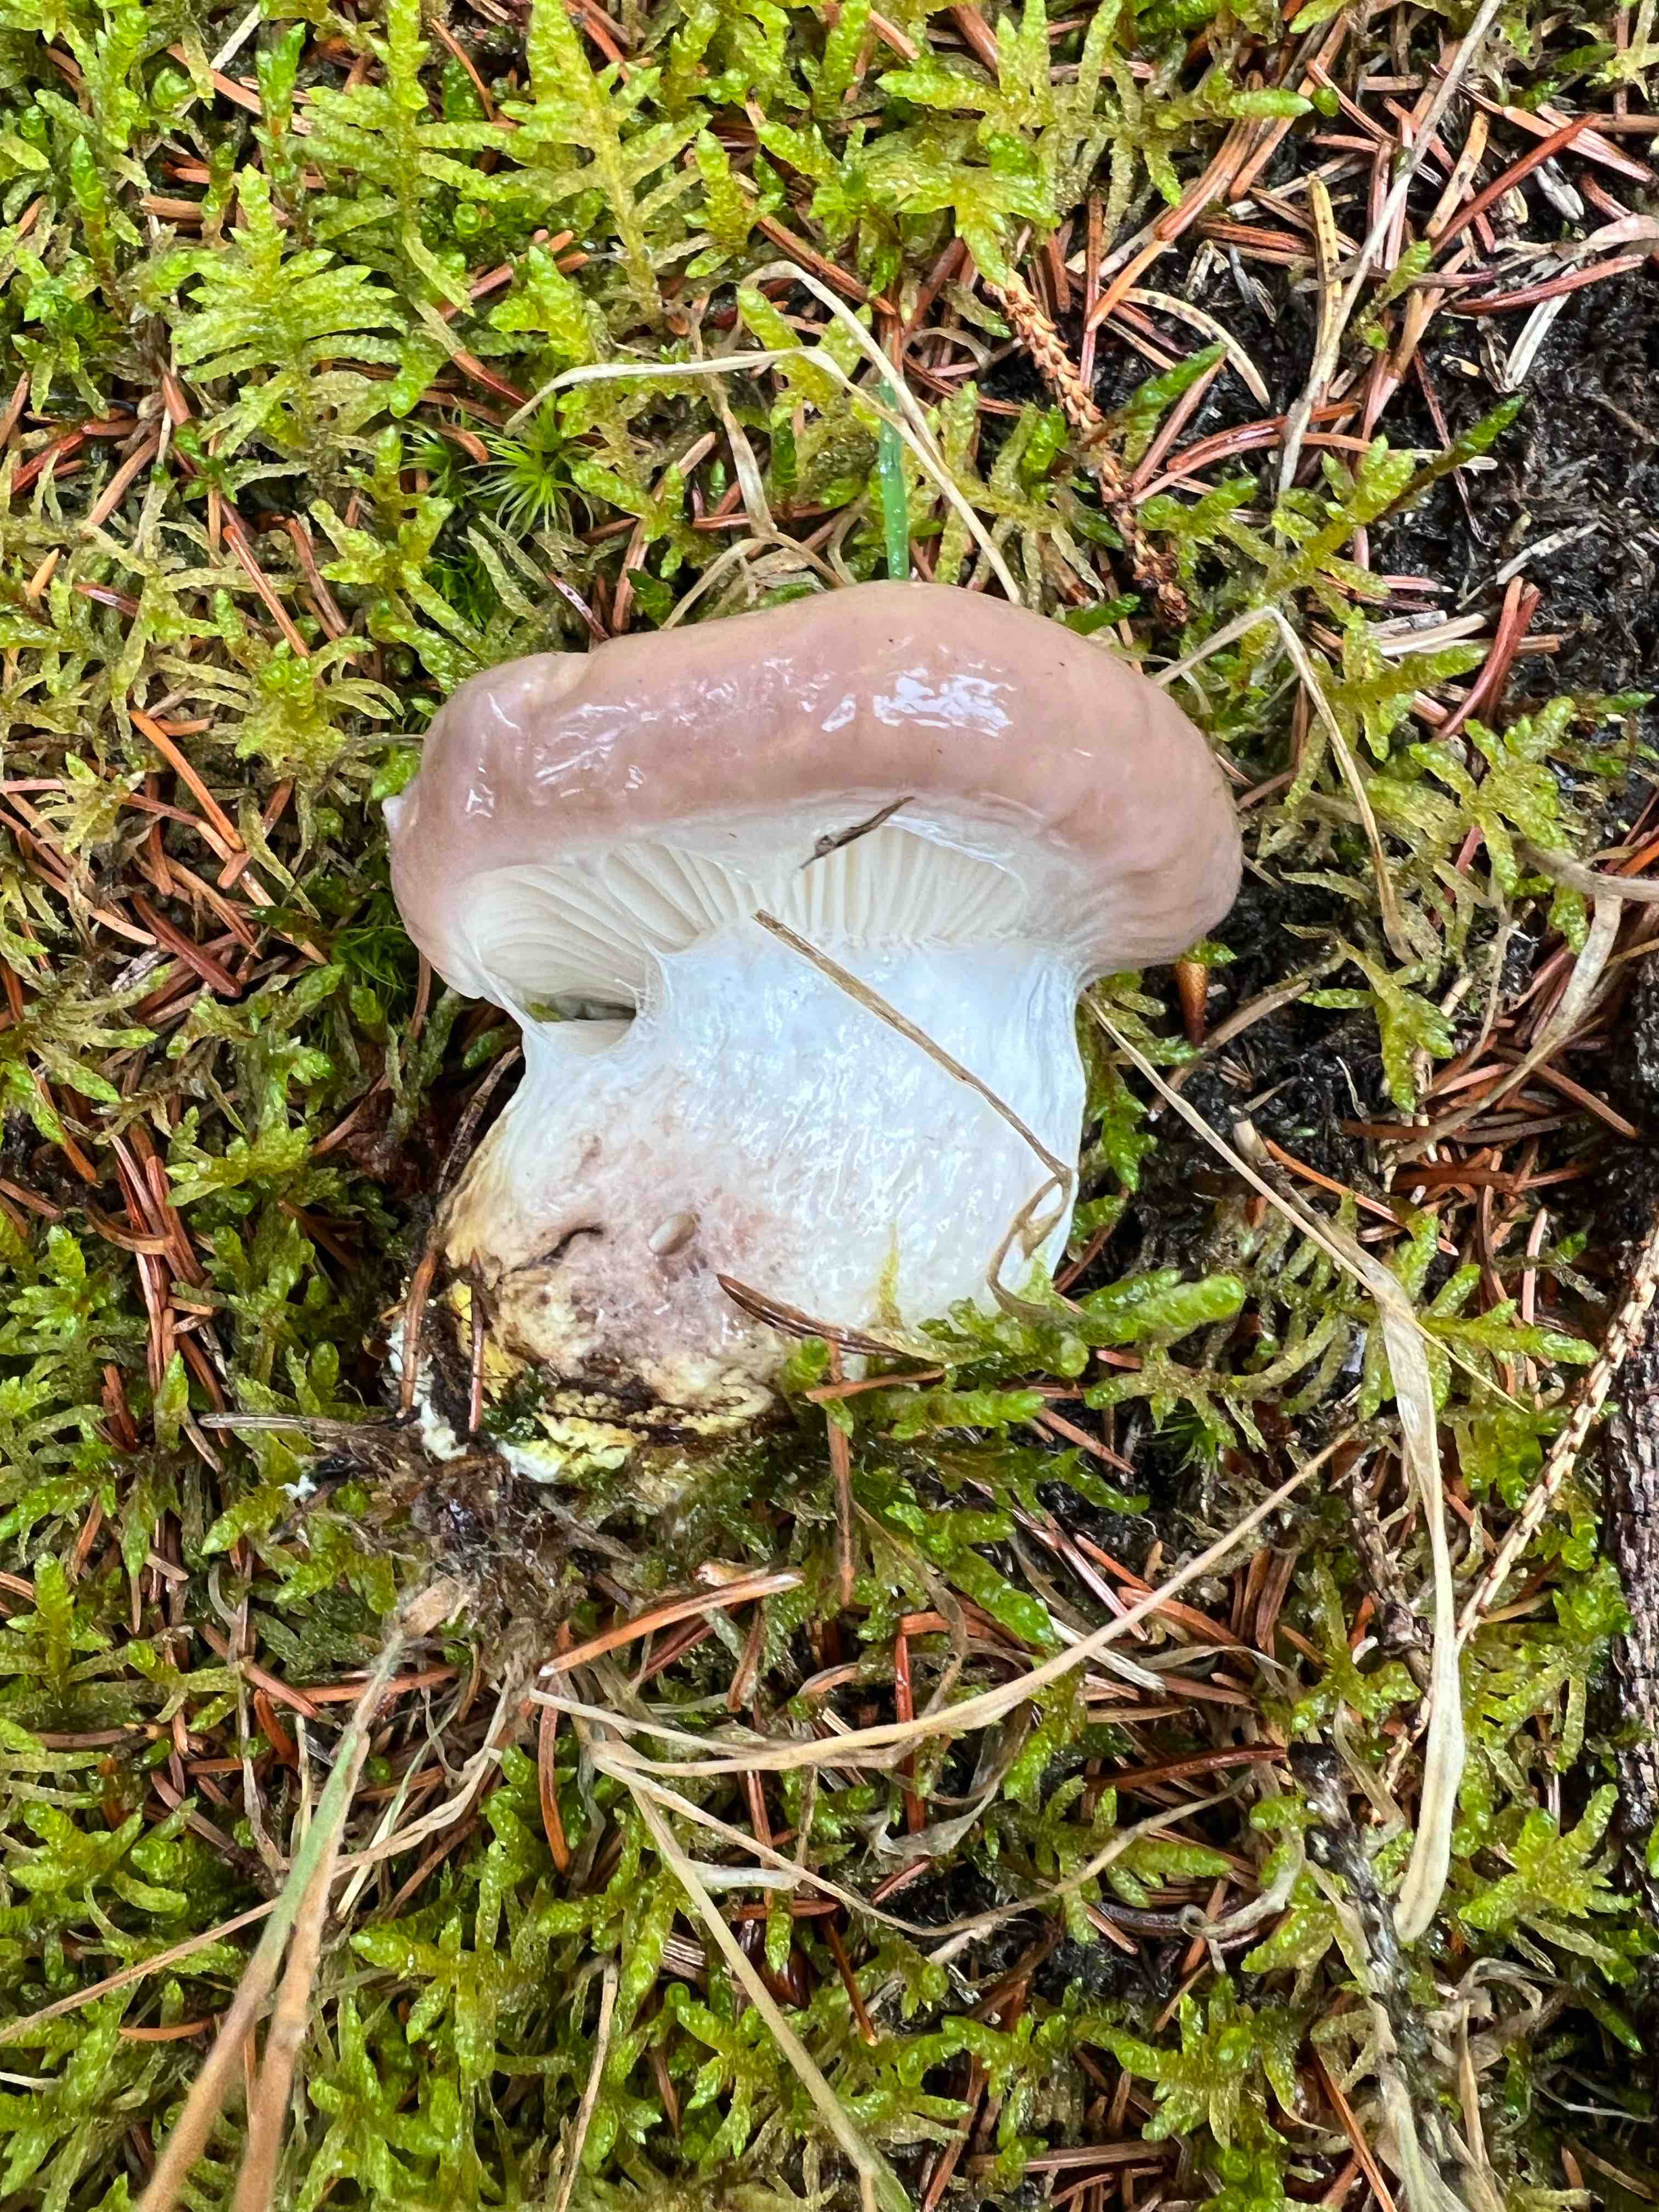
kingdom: Fungi
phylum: Basidiomycota
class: Agaricomycetes
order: Boletales
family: Gomphidiaceae
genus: Gomphidius
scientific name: Gomphidius glutinosus
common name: grå slimslør
